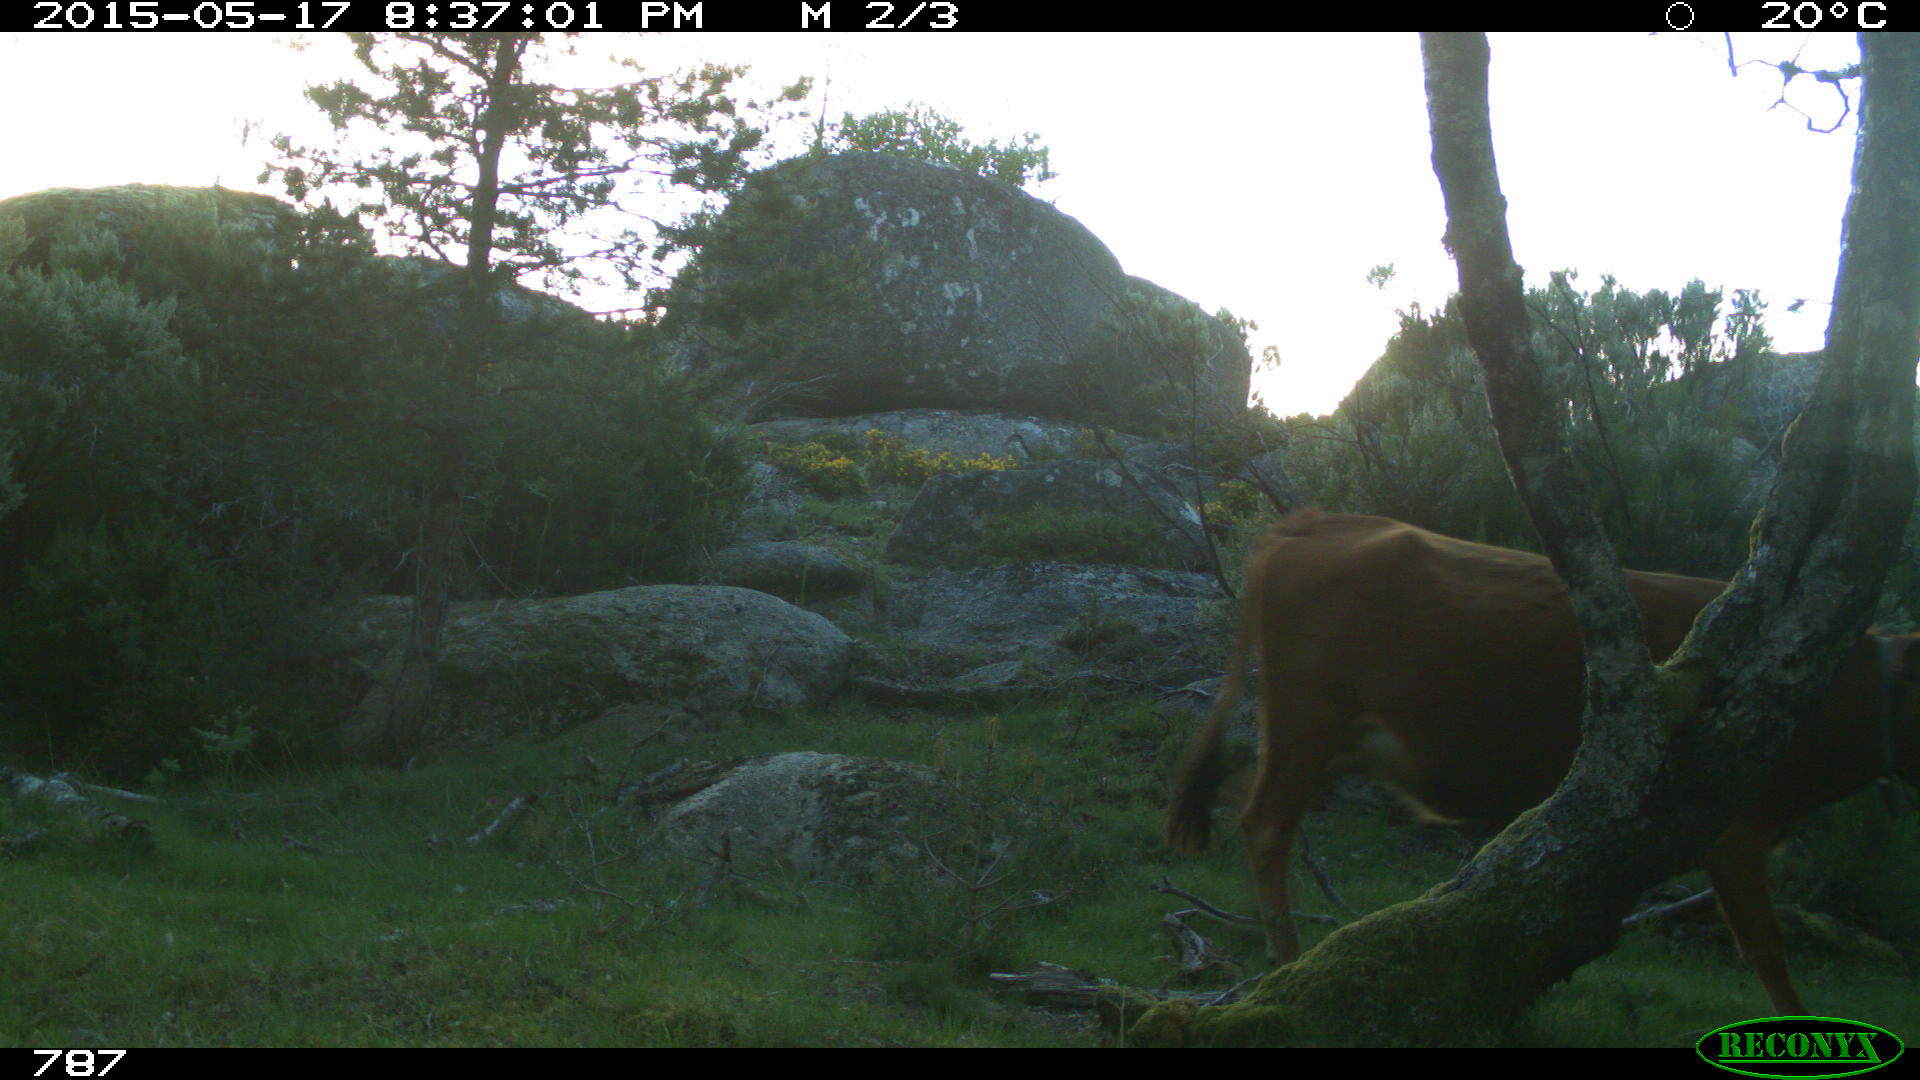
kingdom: Animalia
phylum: Chordata
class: Mammalia
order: Artiodactyla
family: Bovidae
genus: Bos
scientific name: Bos taurus
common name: Domesticated cattle
